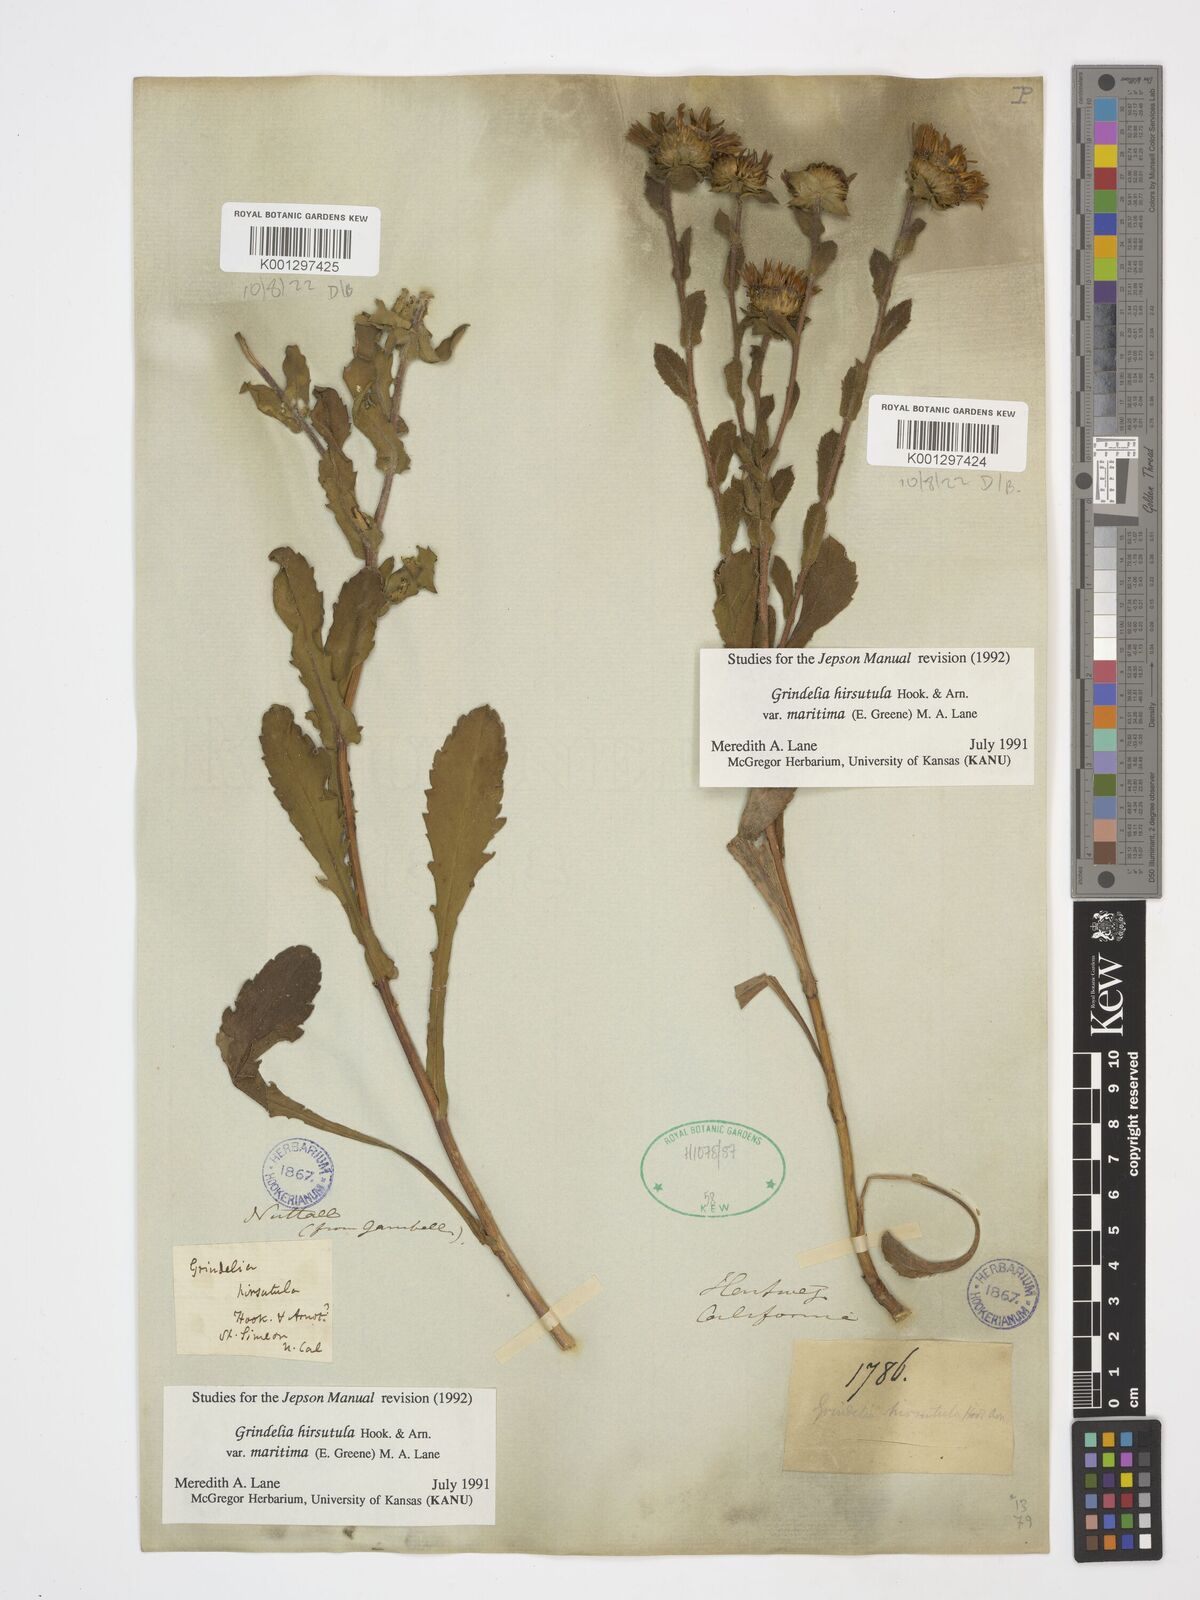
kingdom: Plantae
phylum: Tracheophyta
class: Magnoliopsida
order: Asterales
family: Asteraceae
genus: Grindelia
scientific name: Grindelia hirsutula
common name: Hairy gumweed
